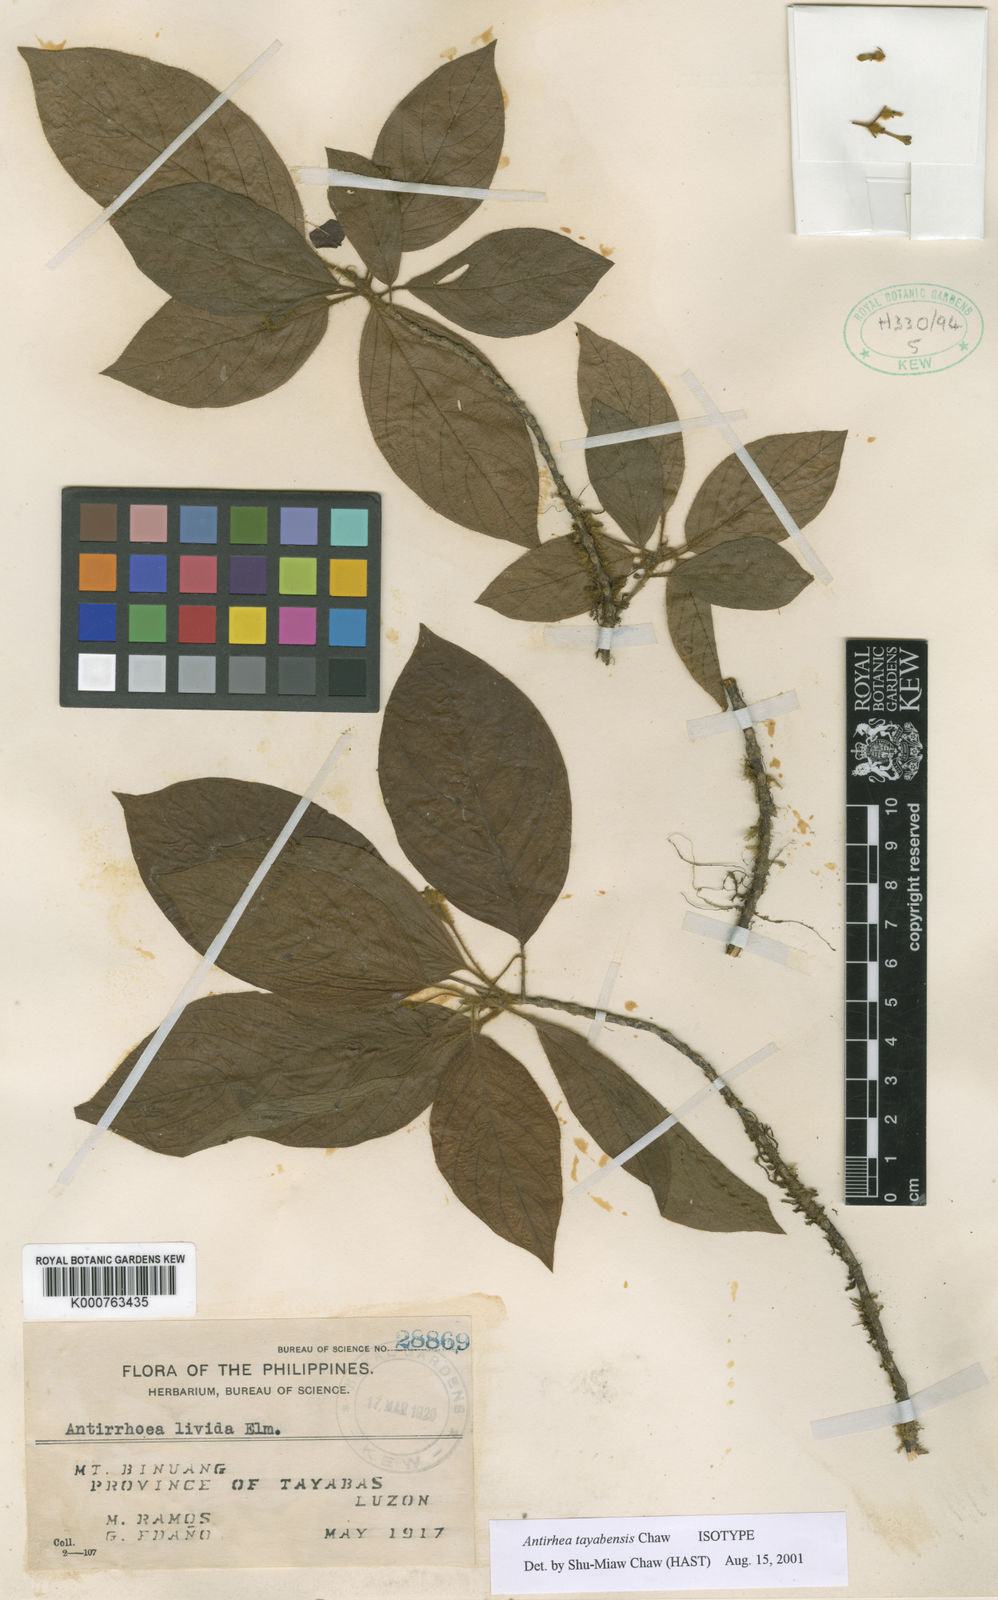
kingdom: Plantae
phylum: Tracheophyta
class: Magnoliopsida
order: Gentianales
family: Rubiaceae
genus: Guettardella
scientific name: Guettardella tayabensis
